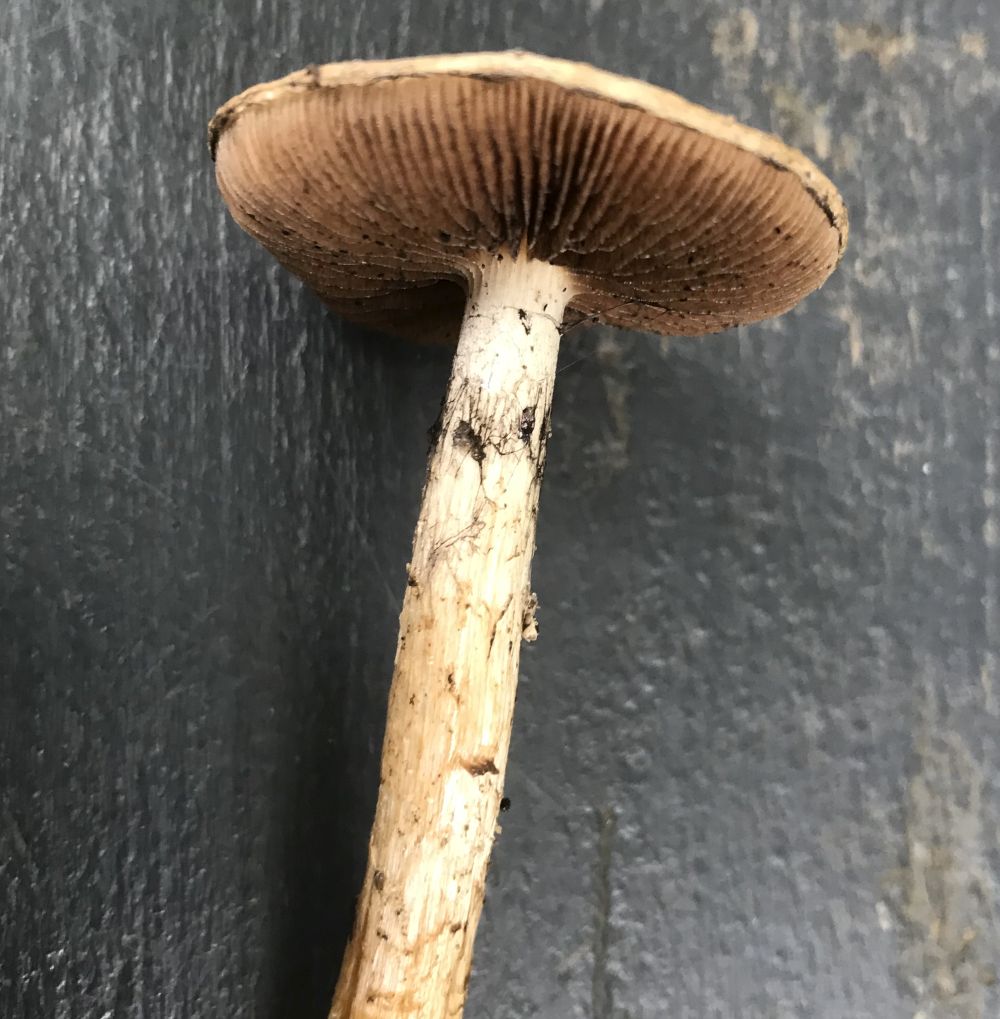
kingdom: Fungi
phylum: Basidiomycota
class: Agaricomycetes
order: Agaricales
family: Psathyrellaceae
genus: Lacrymaria
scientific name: Lacrymaria lacrymabunda
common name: grædende mørkhat
